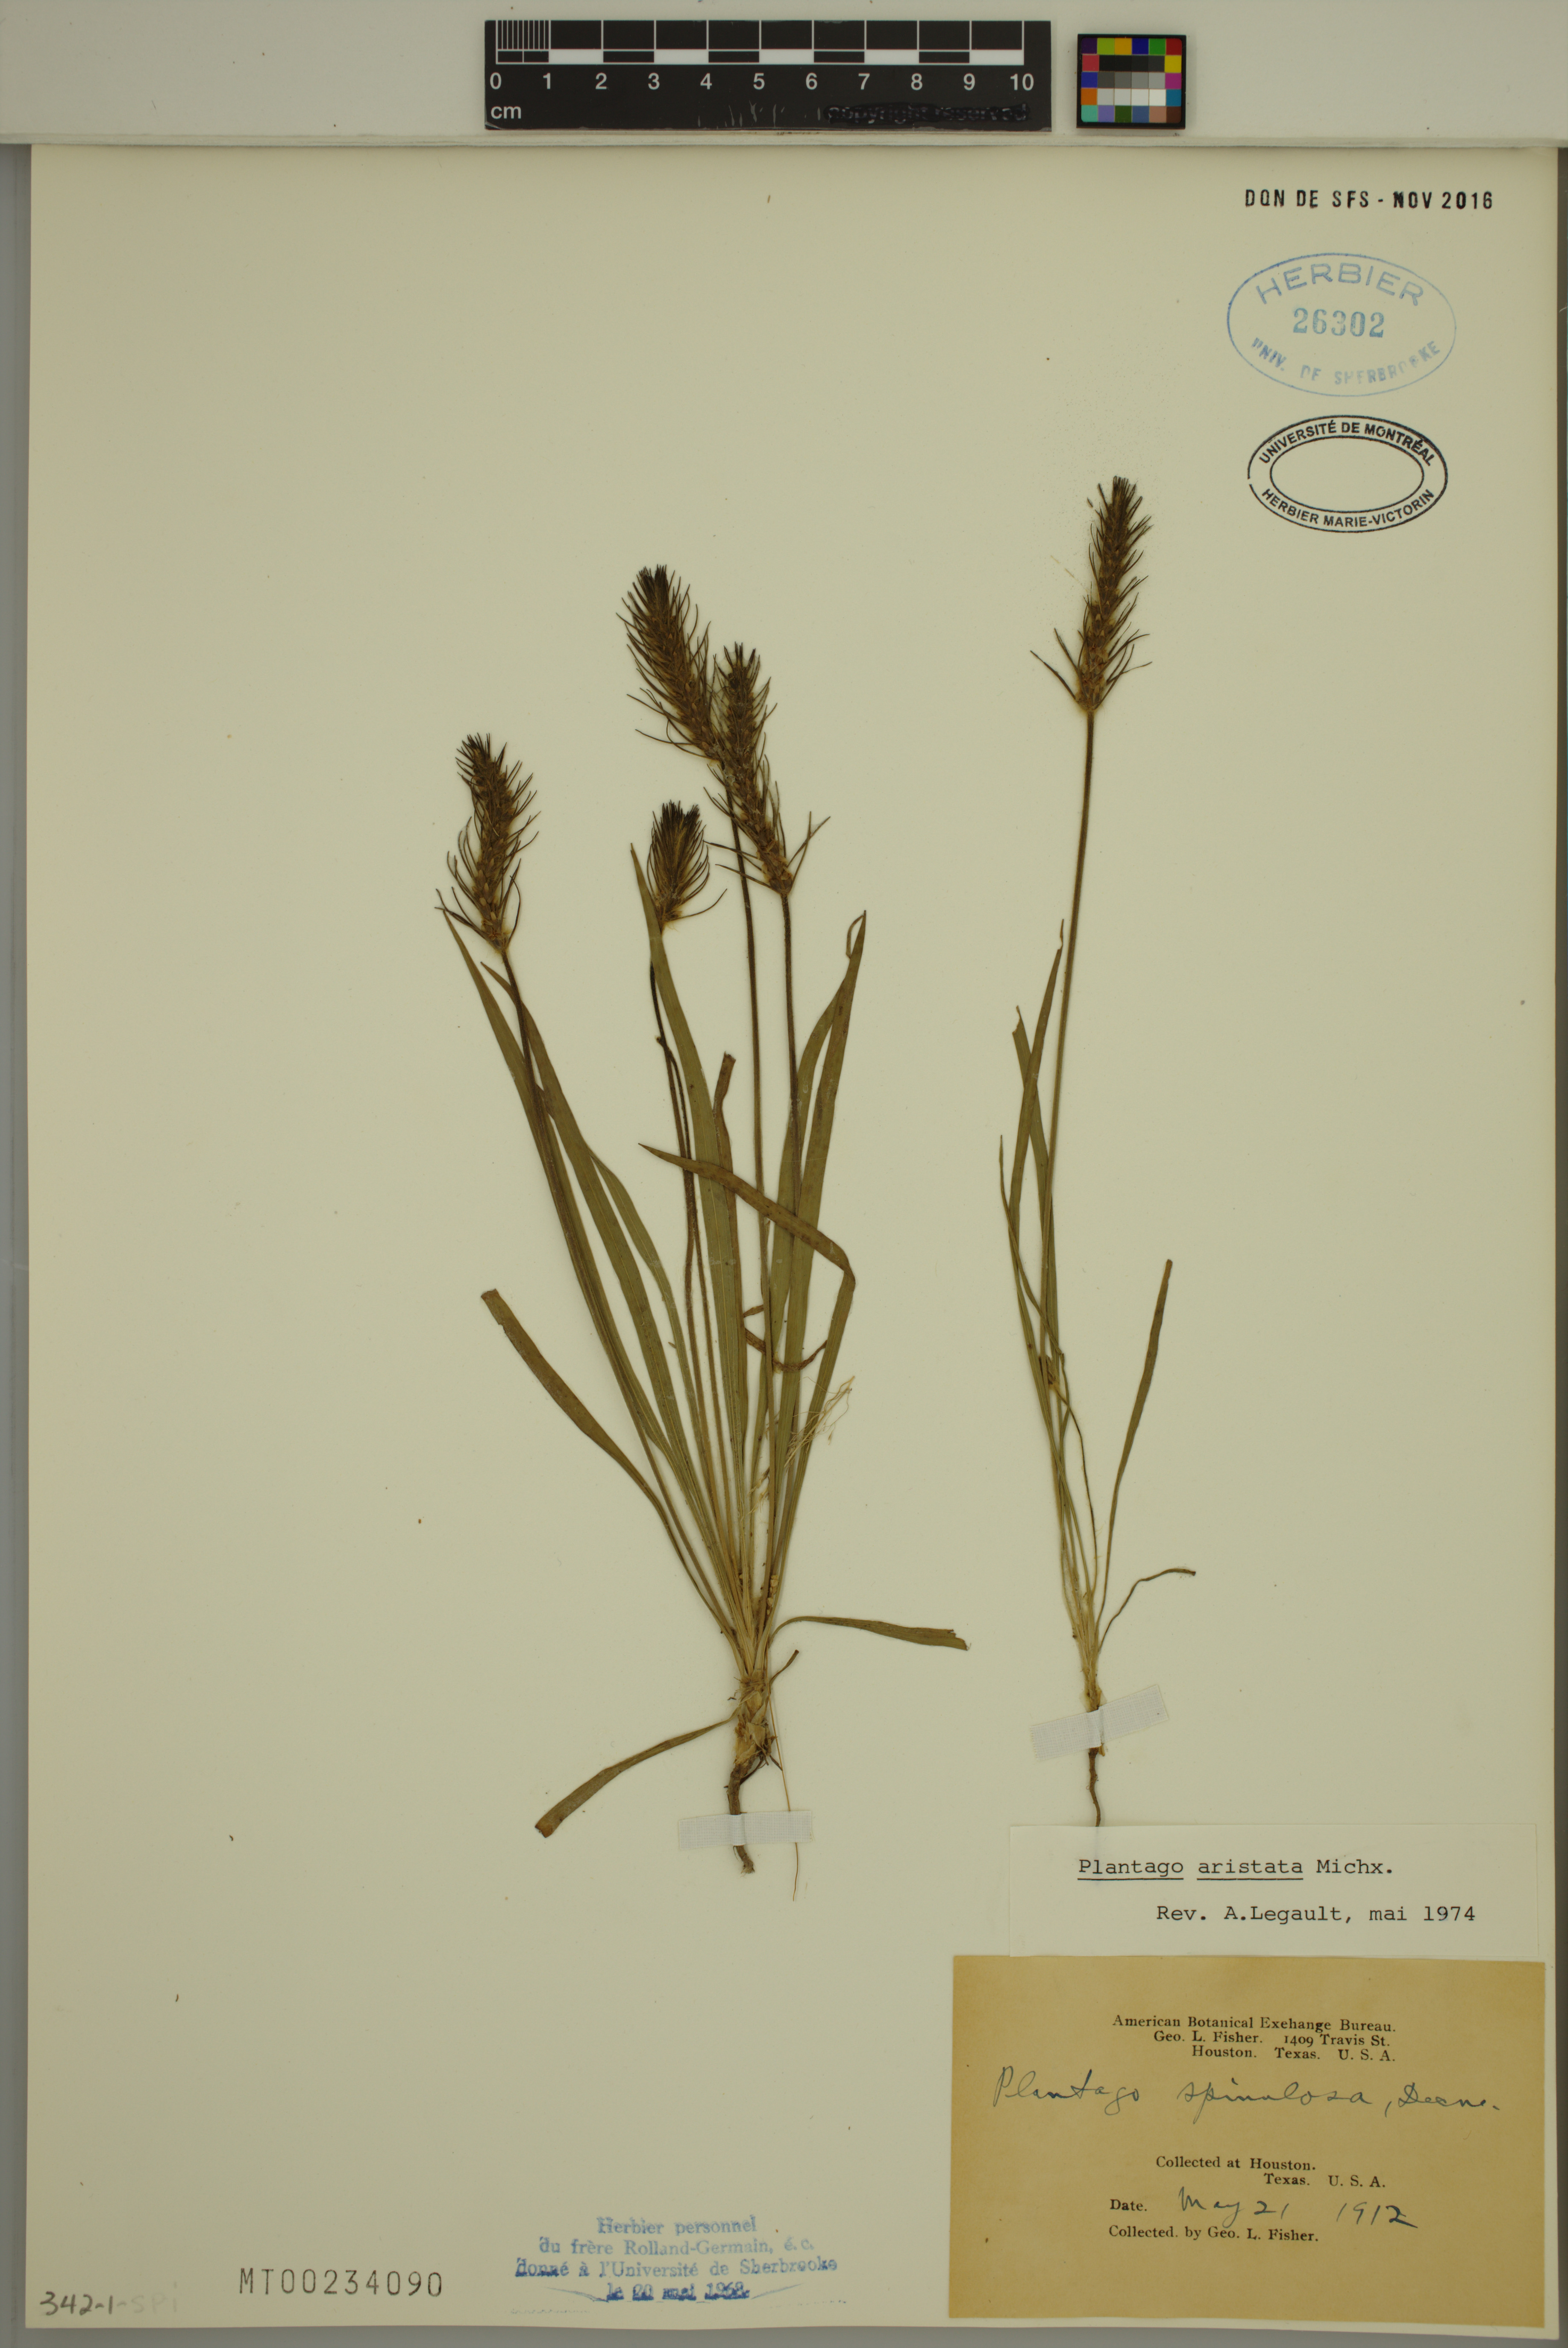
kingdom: Plantae
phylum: Tracheophyta
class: Magnoliopsida
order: Lamiales
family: Plantaginaceae
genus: Plantago
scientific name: Plantago aristata
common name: Bracted plantain
